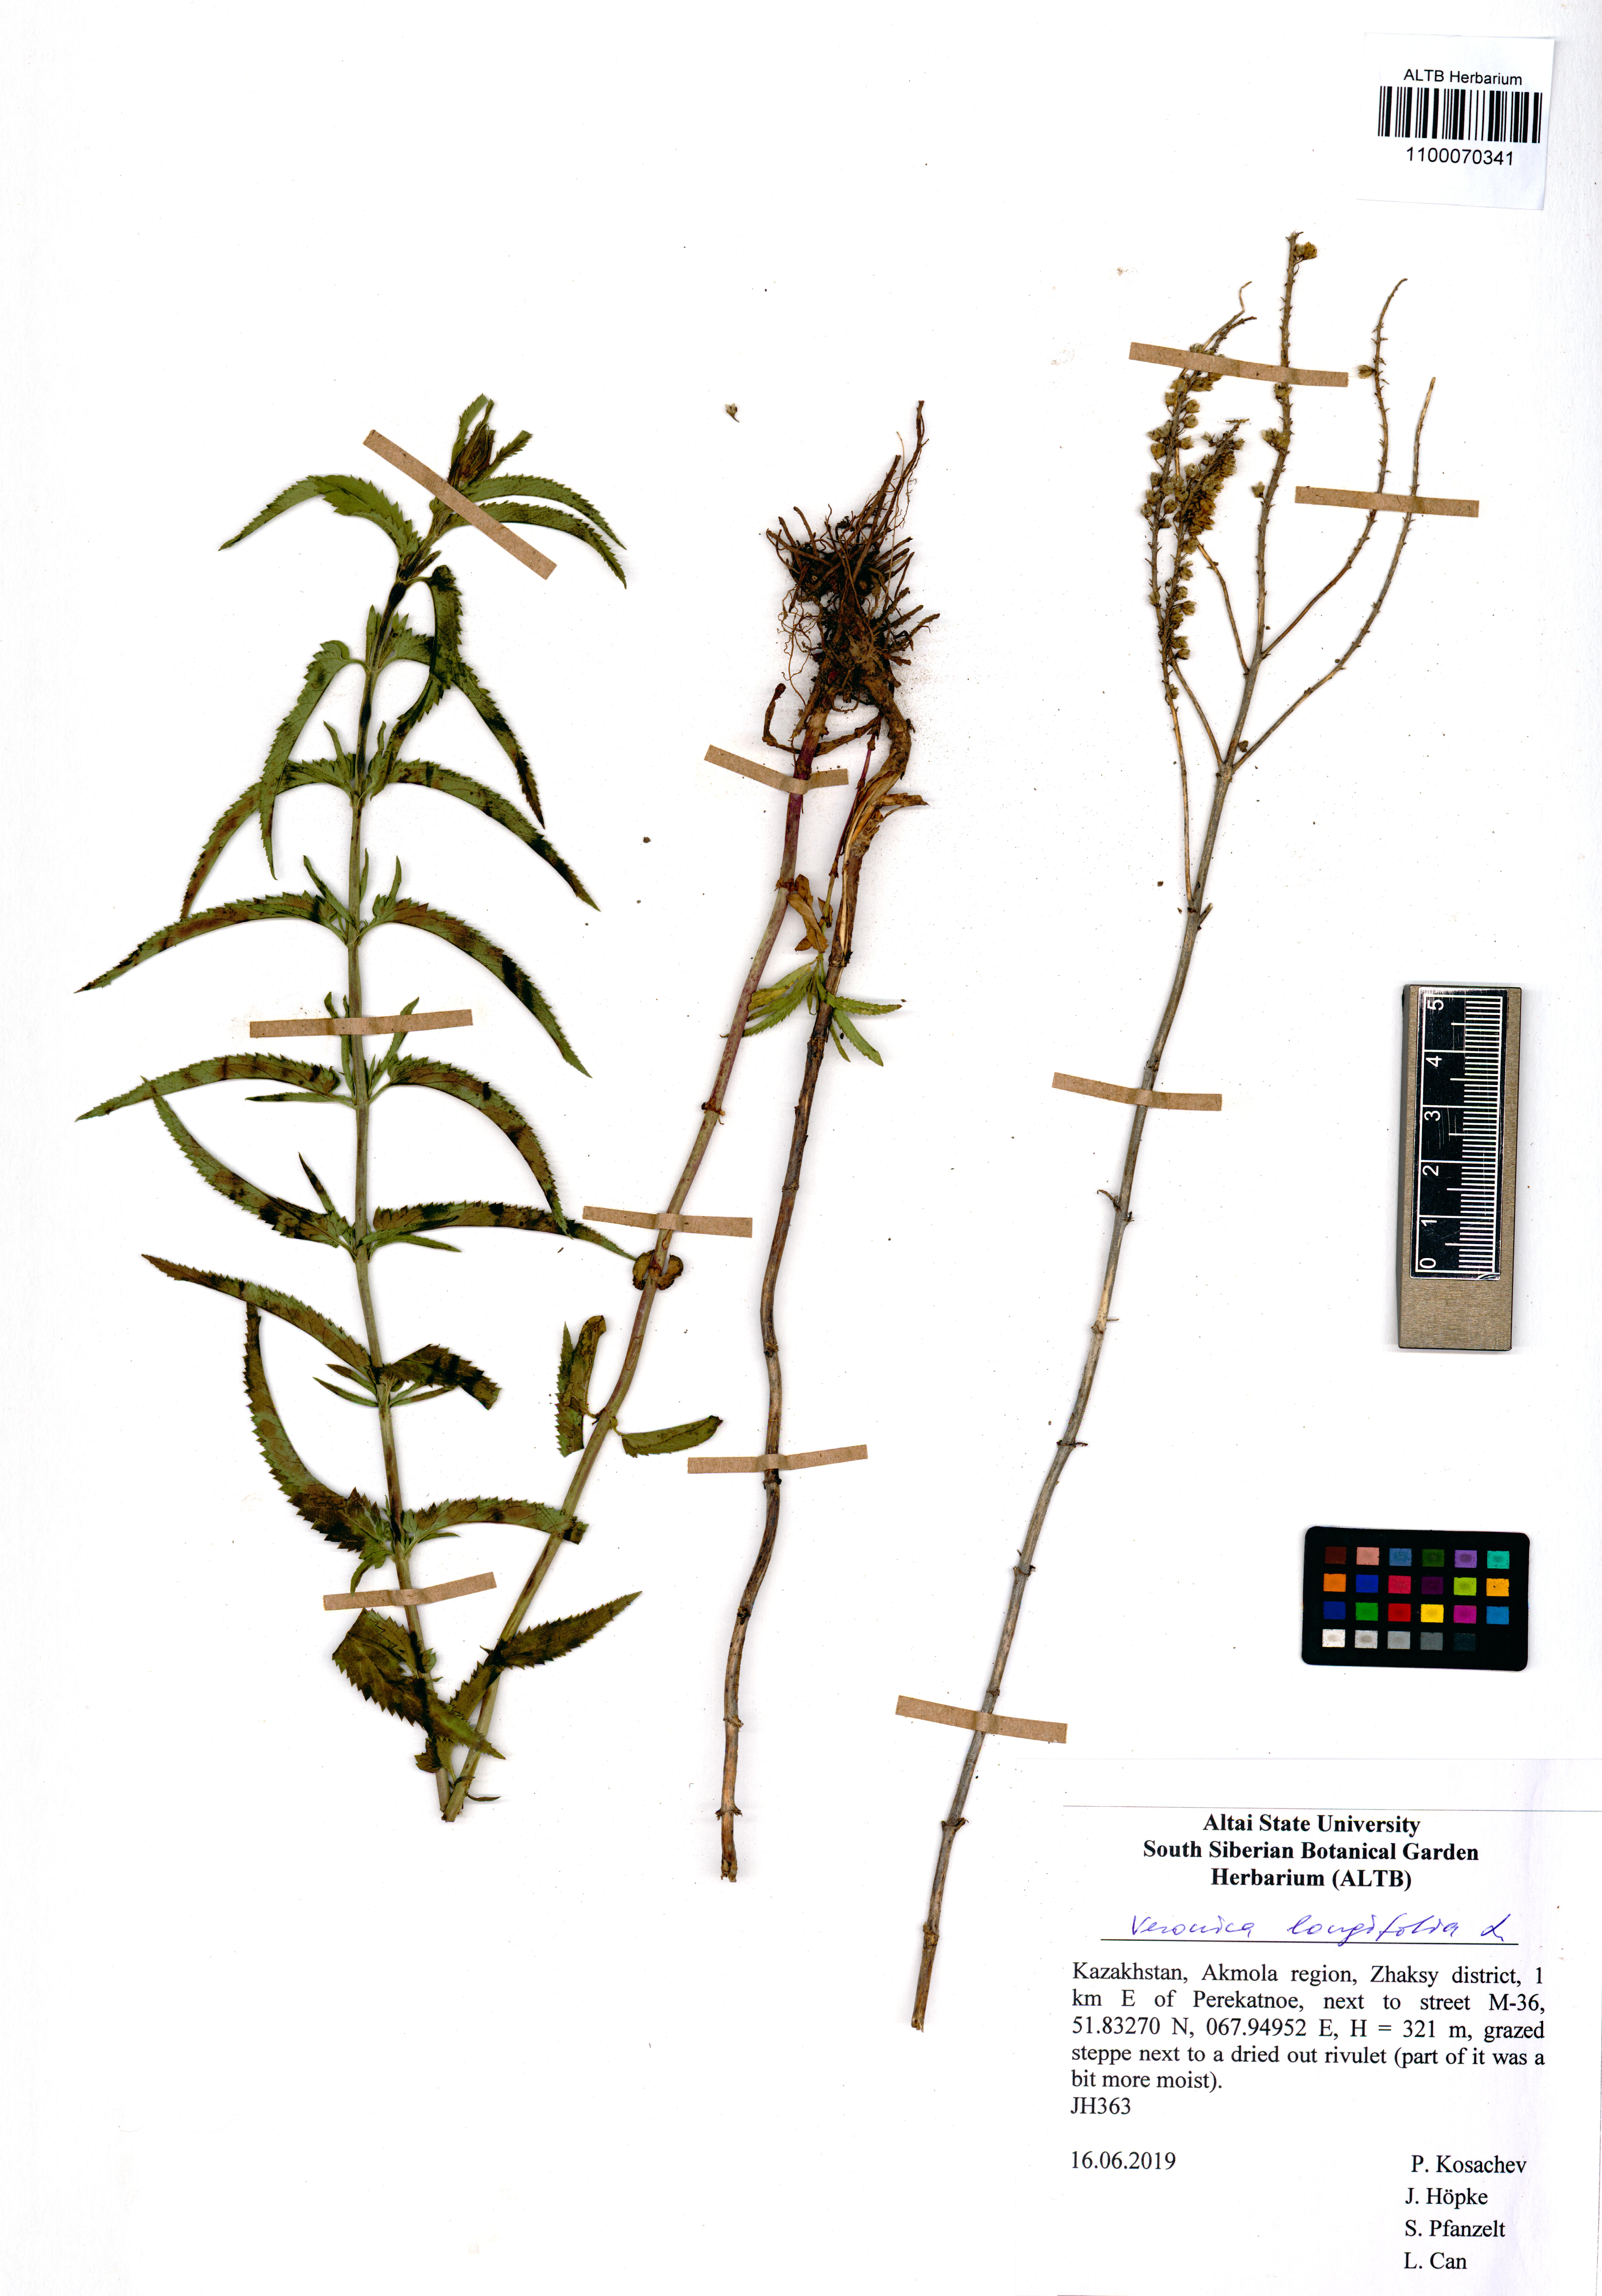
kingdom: Plantae
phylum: Tracheophyta
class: Magnoliopsida
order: Lamiales
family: Plantaginaceae
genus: Veronica
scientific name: Veronica longifolia
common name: Garden speedwell
